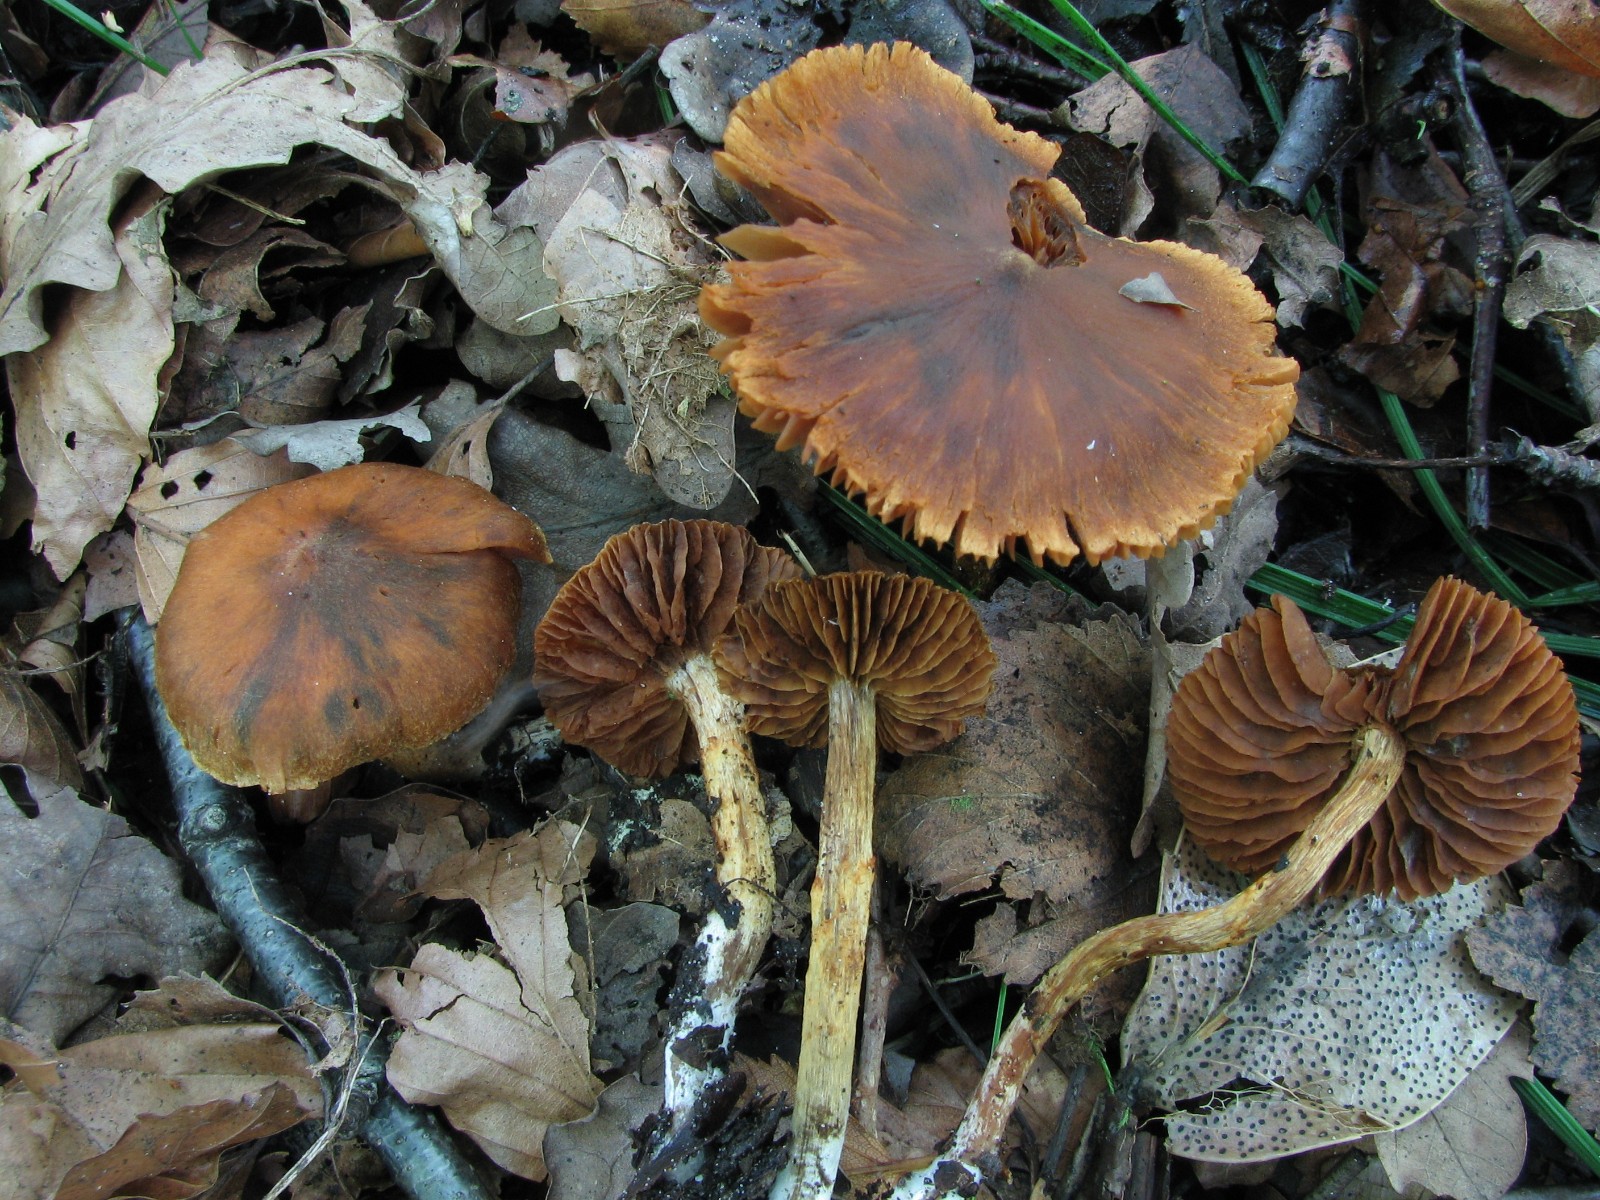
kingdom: Fungi
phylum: Basidiomycota
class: Agaricomycetes
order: Agaricales
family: Cortinariaceae
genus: Cortinarius
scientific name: Cortinarius saniosus
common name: gultrævlet slørhat
